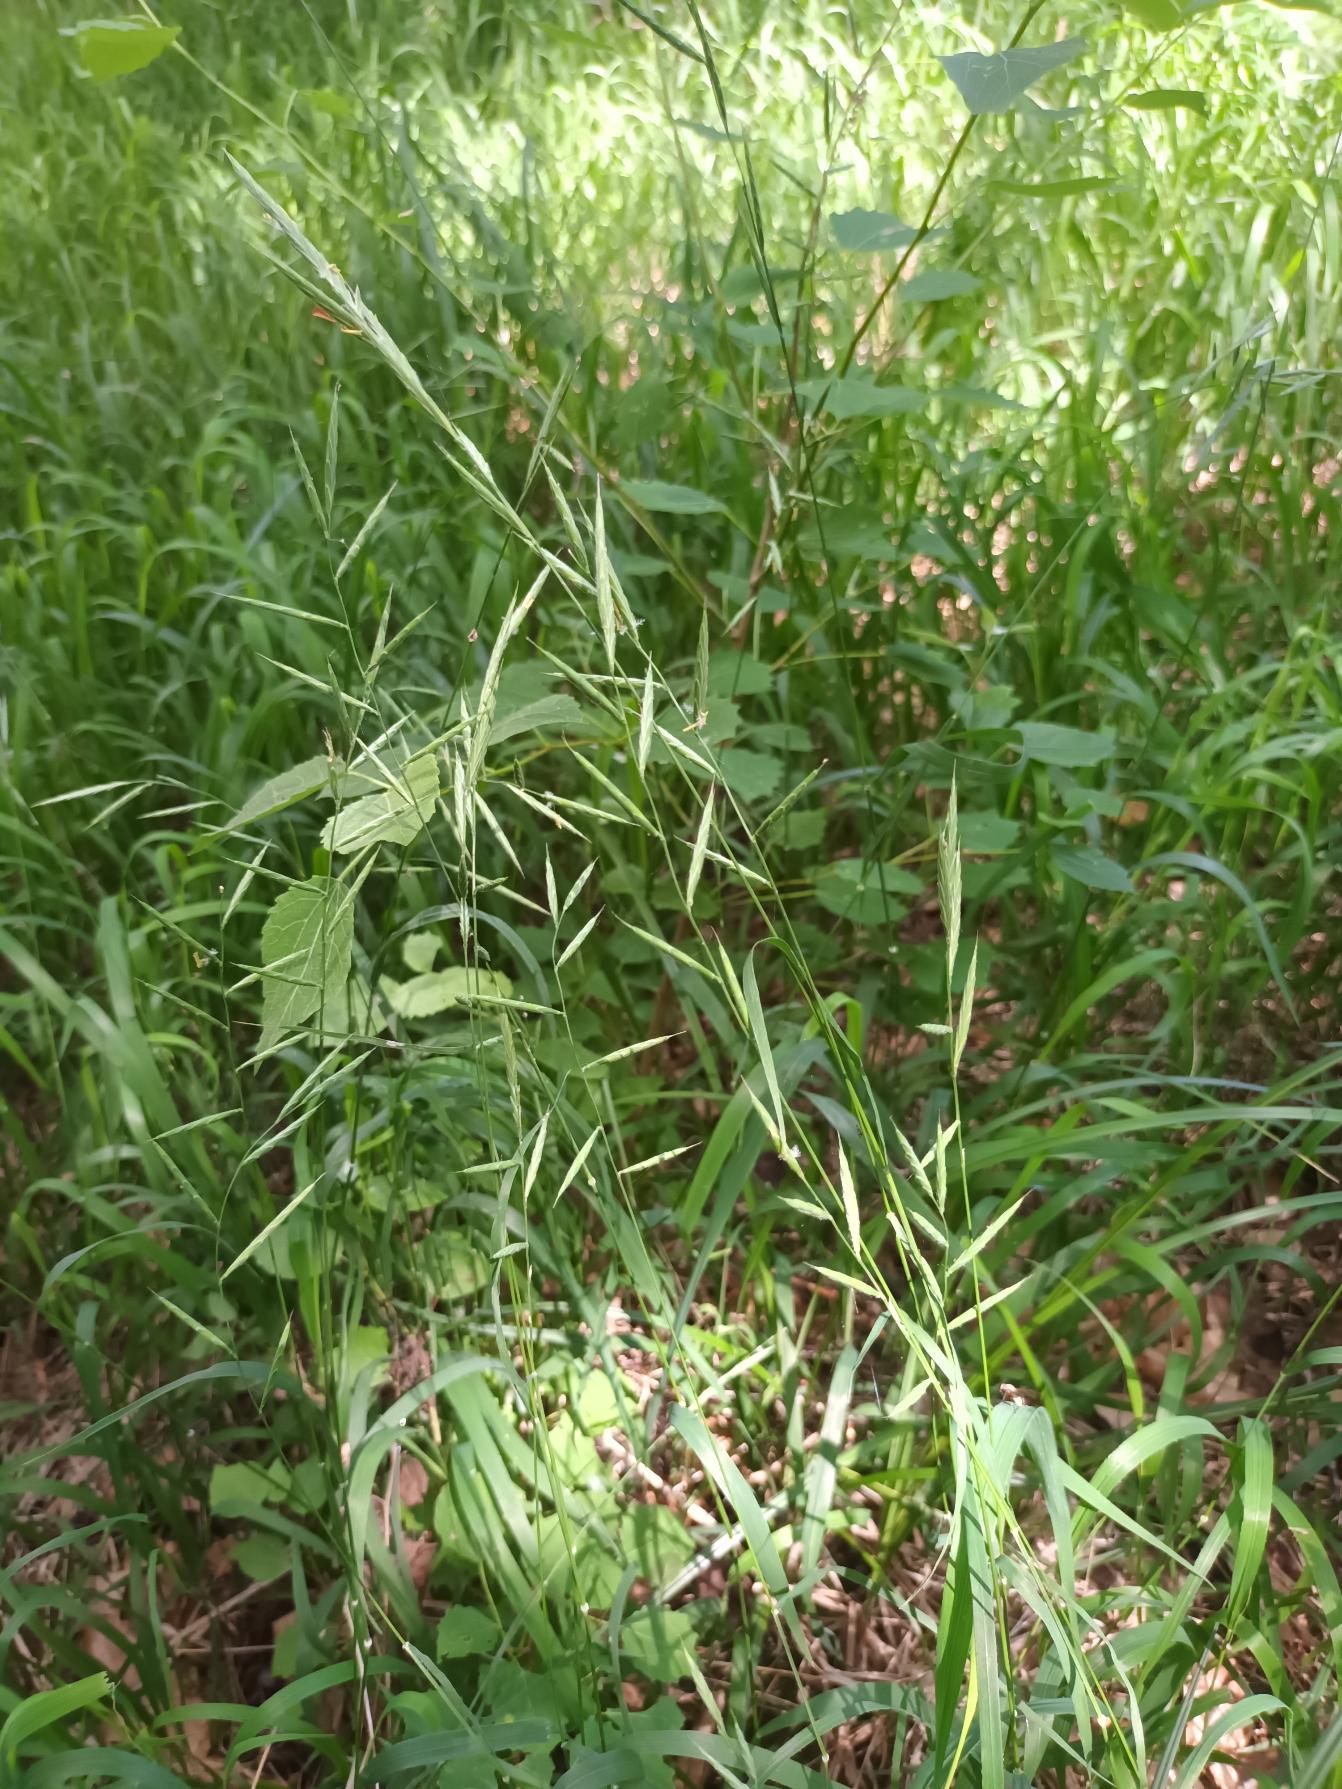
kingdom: Plantae
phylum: Tracheophyta
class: Liliopsida
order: Poales
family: Poaceae
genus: Brachypodium
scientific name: Brachypodium pinnatum
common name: Bakke-stilkaks
